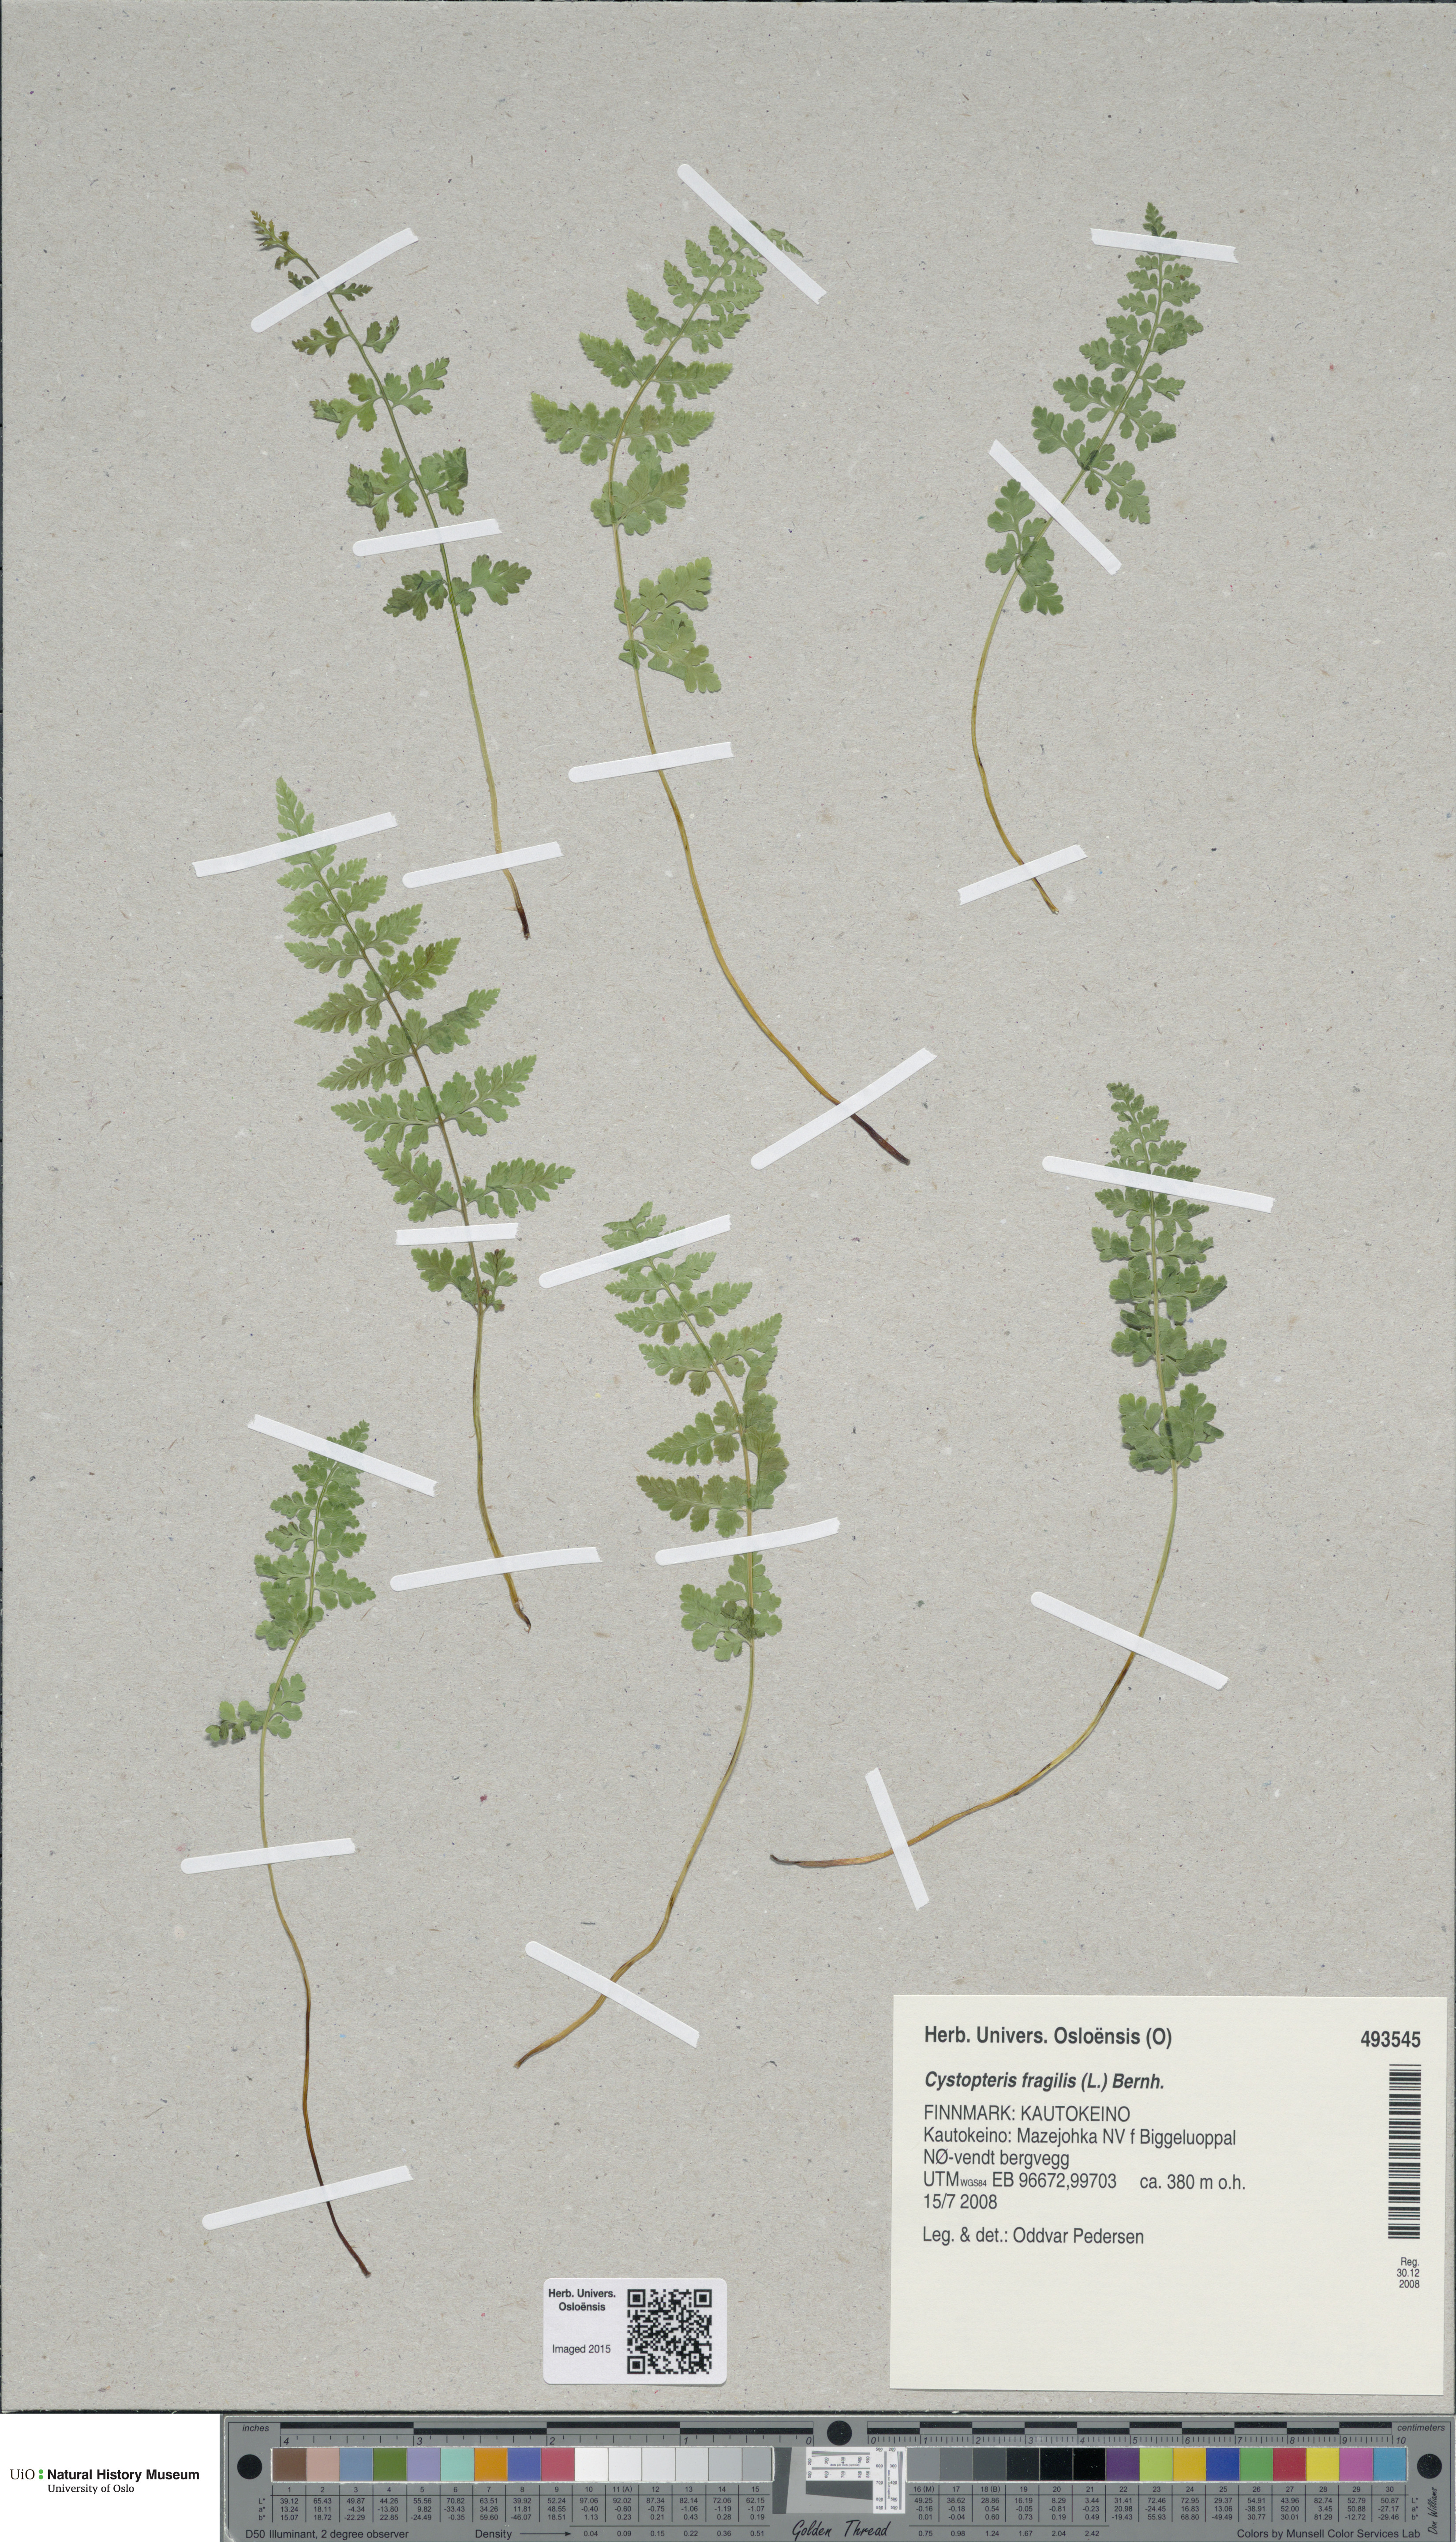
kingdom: Plantae
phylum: Tracheophyta
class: Polypodiopsida
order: Polypodiales
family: Cystopteridaceae
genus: Cystopteris
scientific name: Cystopteris fragilis
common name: Brittle bladder fern
